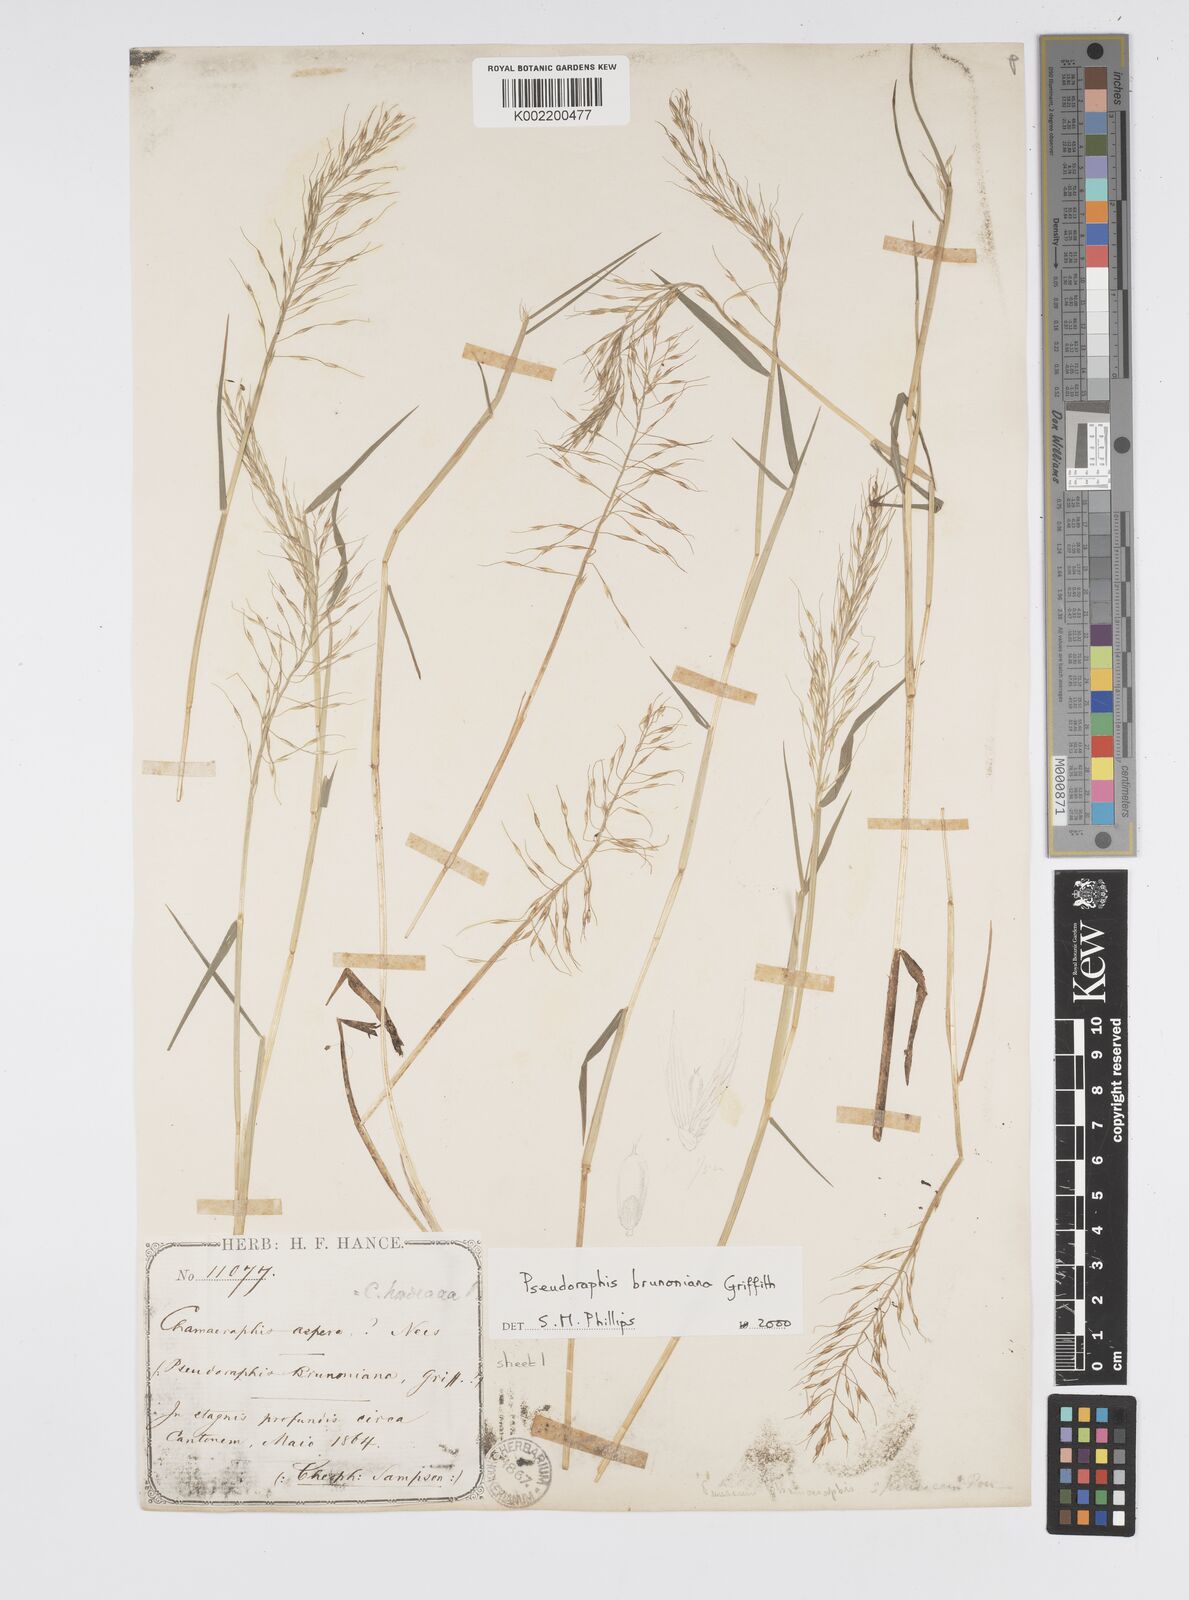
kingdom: Plantae
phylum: Tracheophyta
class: Liliopsida
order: Poales
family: Poaceae
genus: Pseudoraphis
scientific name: Pseudoraphis brunoniana
